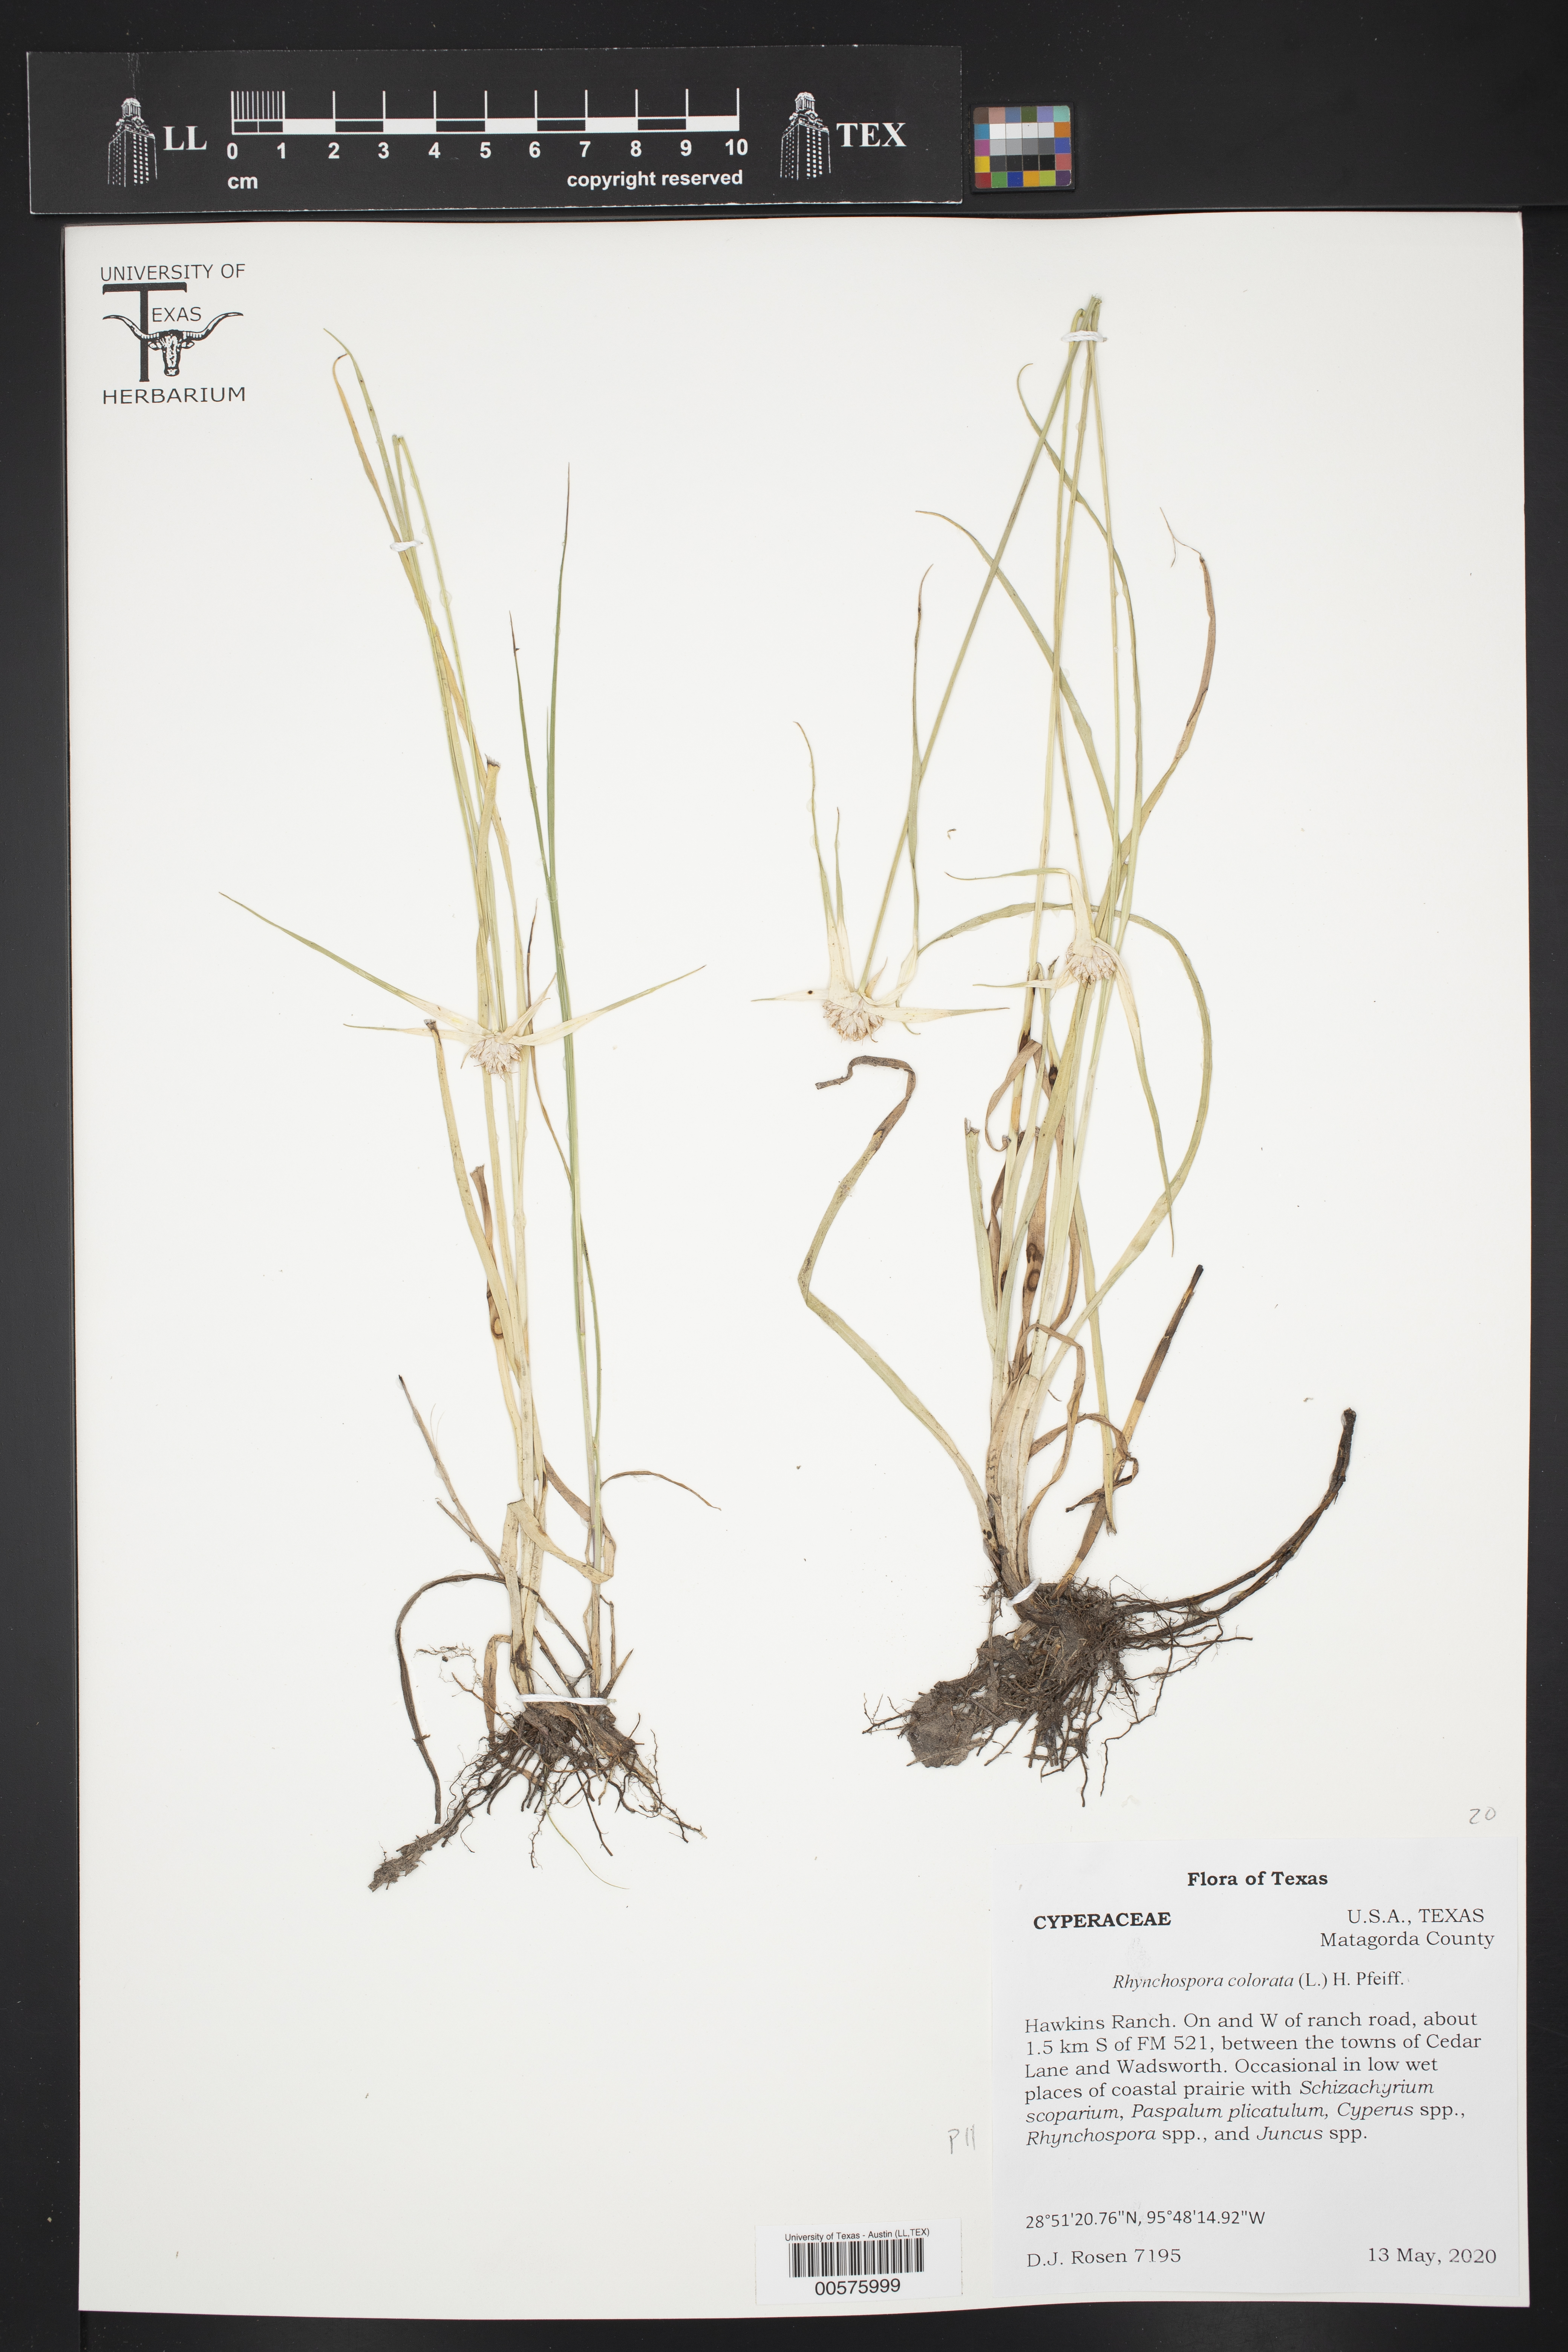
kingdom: Plantae
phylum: Tracheophyta
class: Liliopsida
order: Poales
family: Cyperaceae
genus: Rhynchospora
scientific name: Rhynchospora colorata
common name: Star sedge
